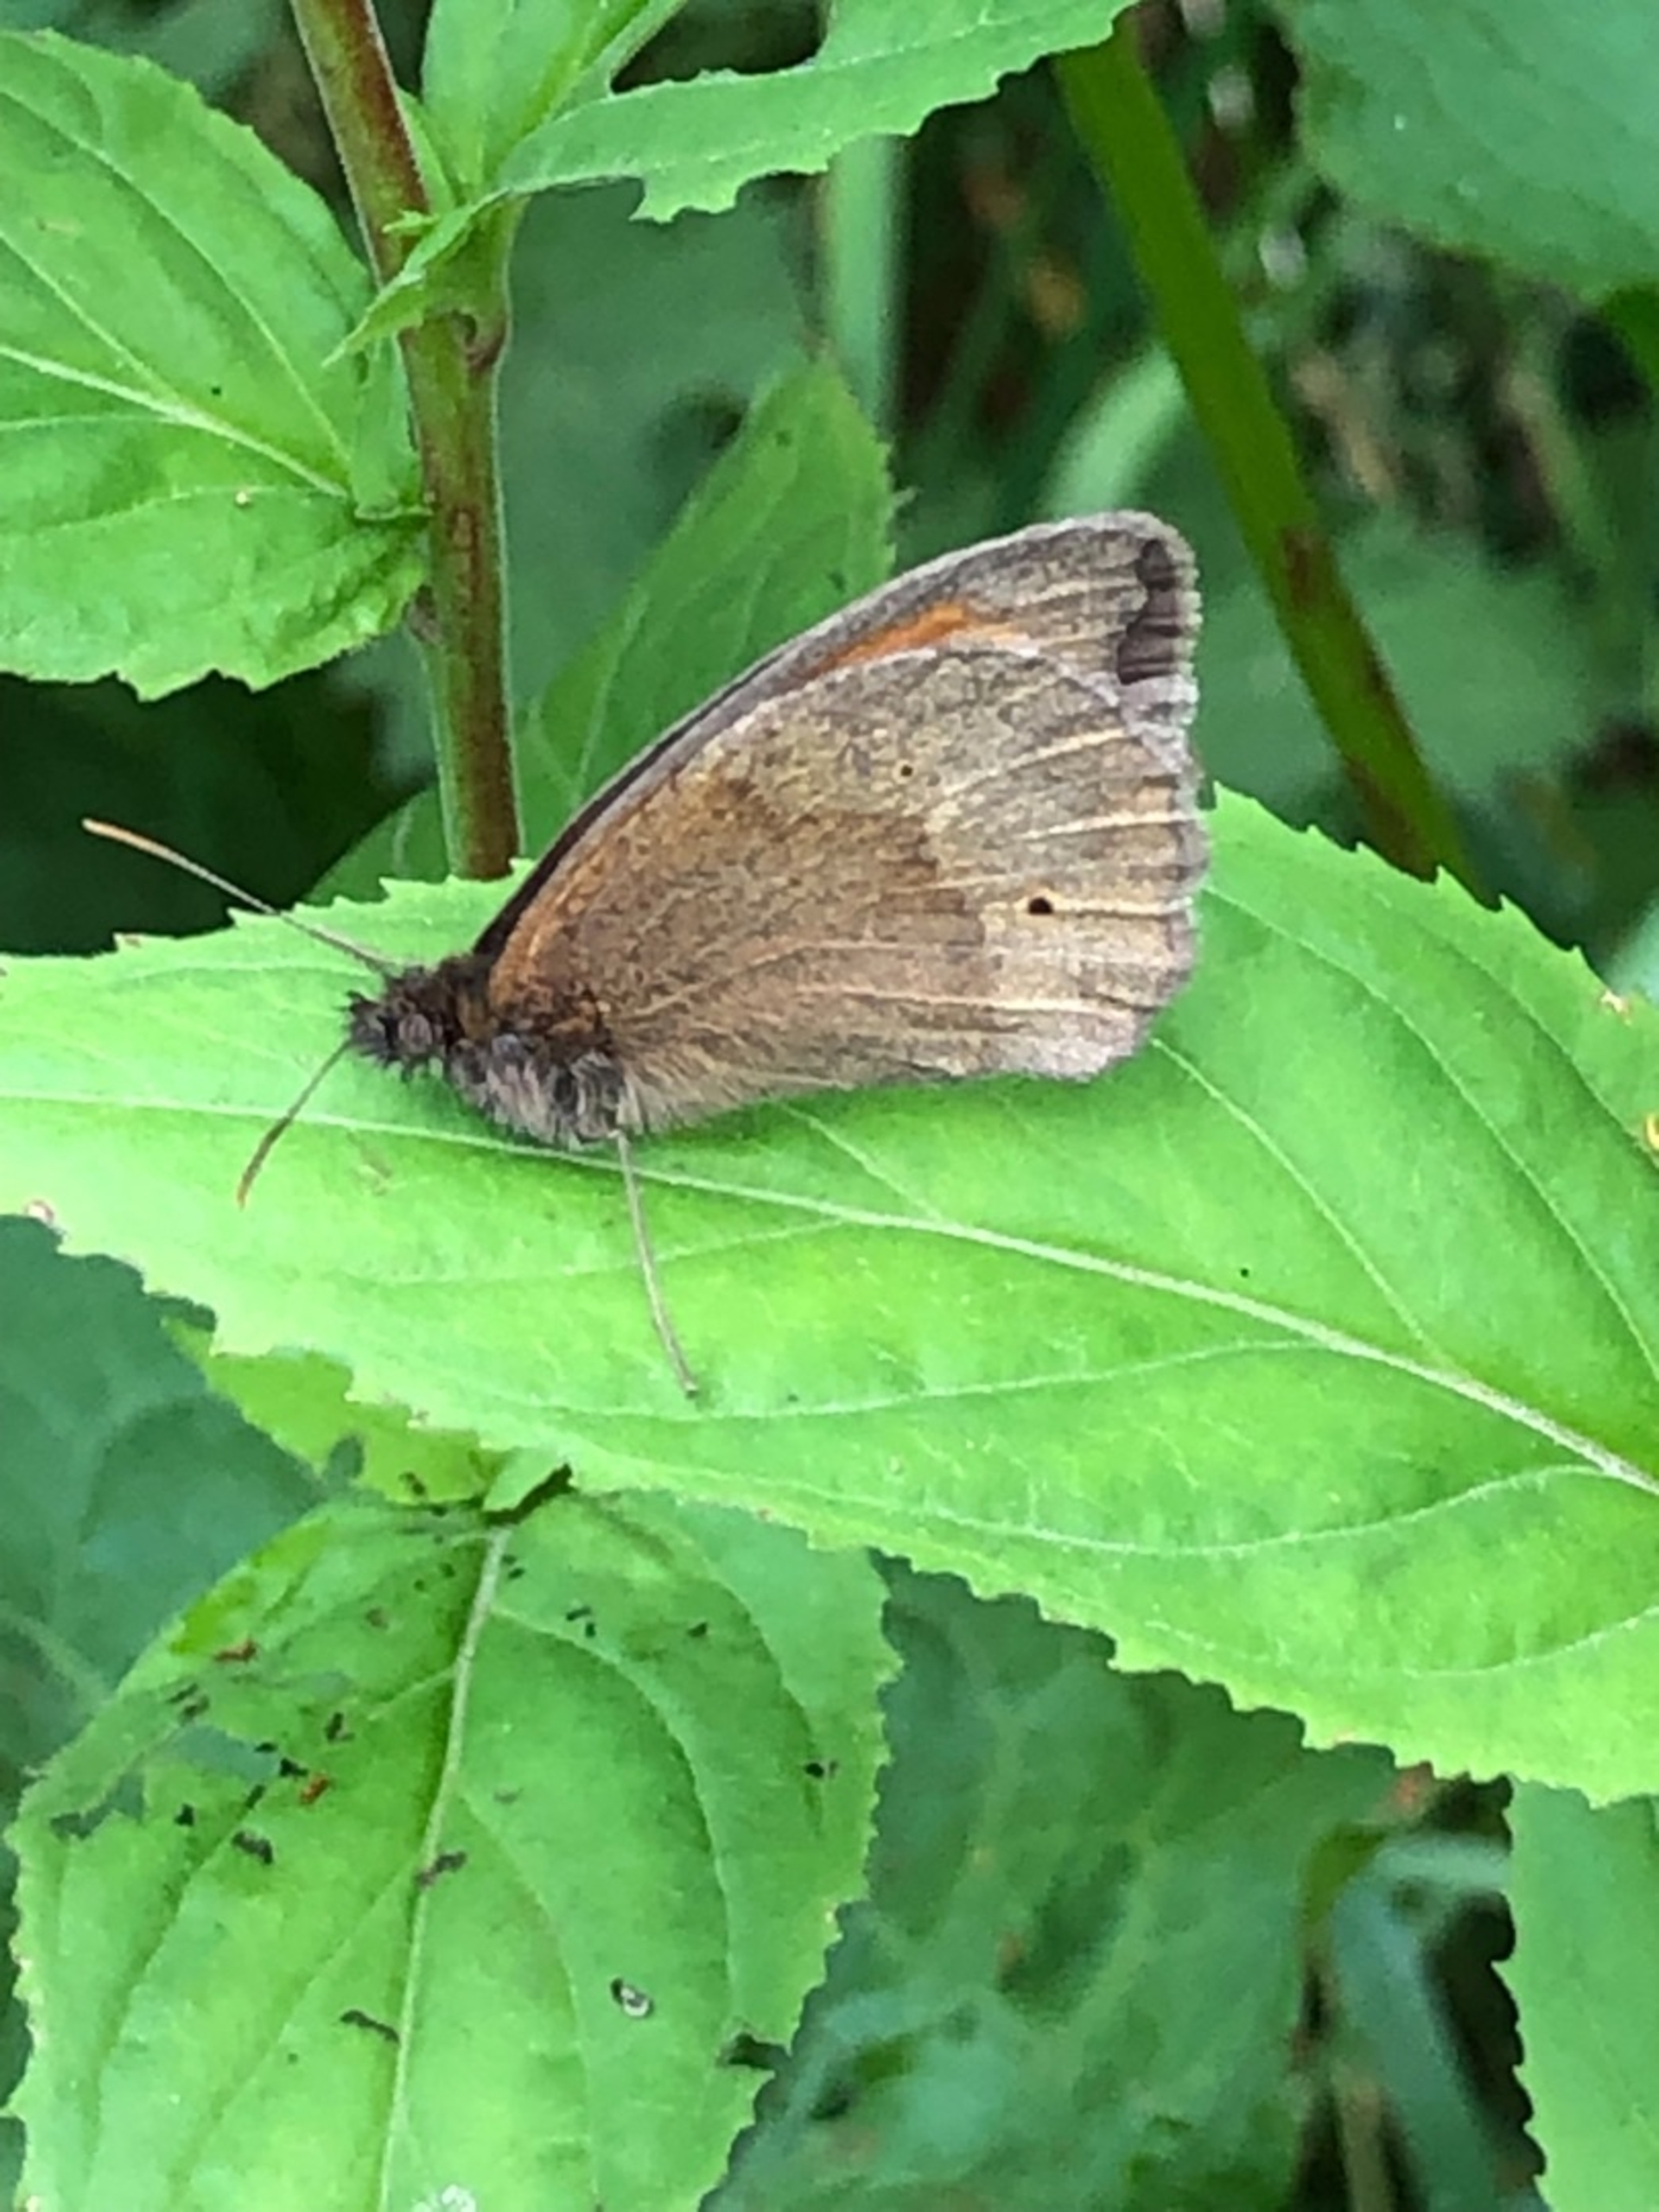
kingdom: Animalia
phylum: Arthropoda
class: Insecta
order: Lepidoptera
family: Nymphalidae
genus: Maniola
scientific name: Maniola jurtina
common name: Græsrandøje
